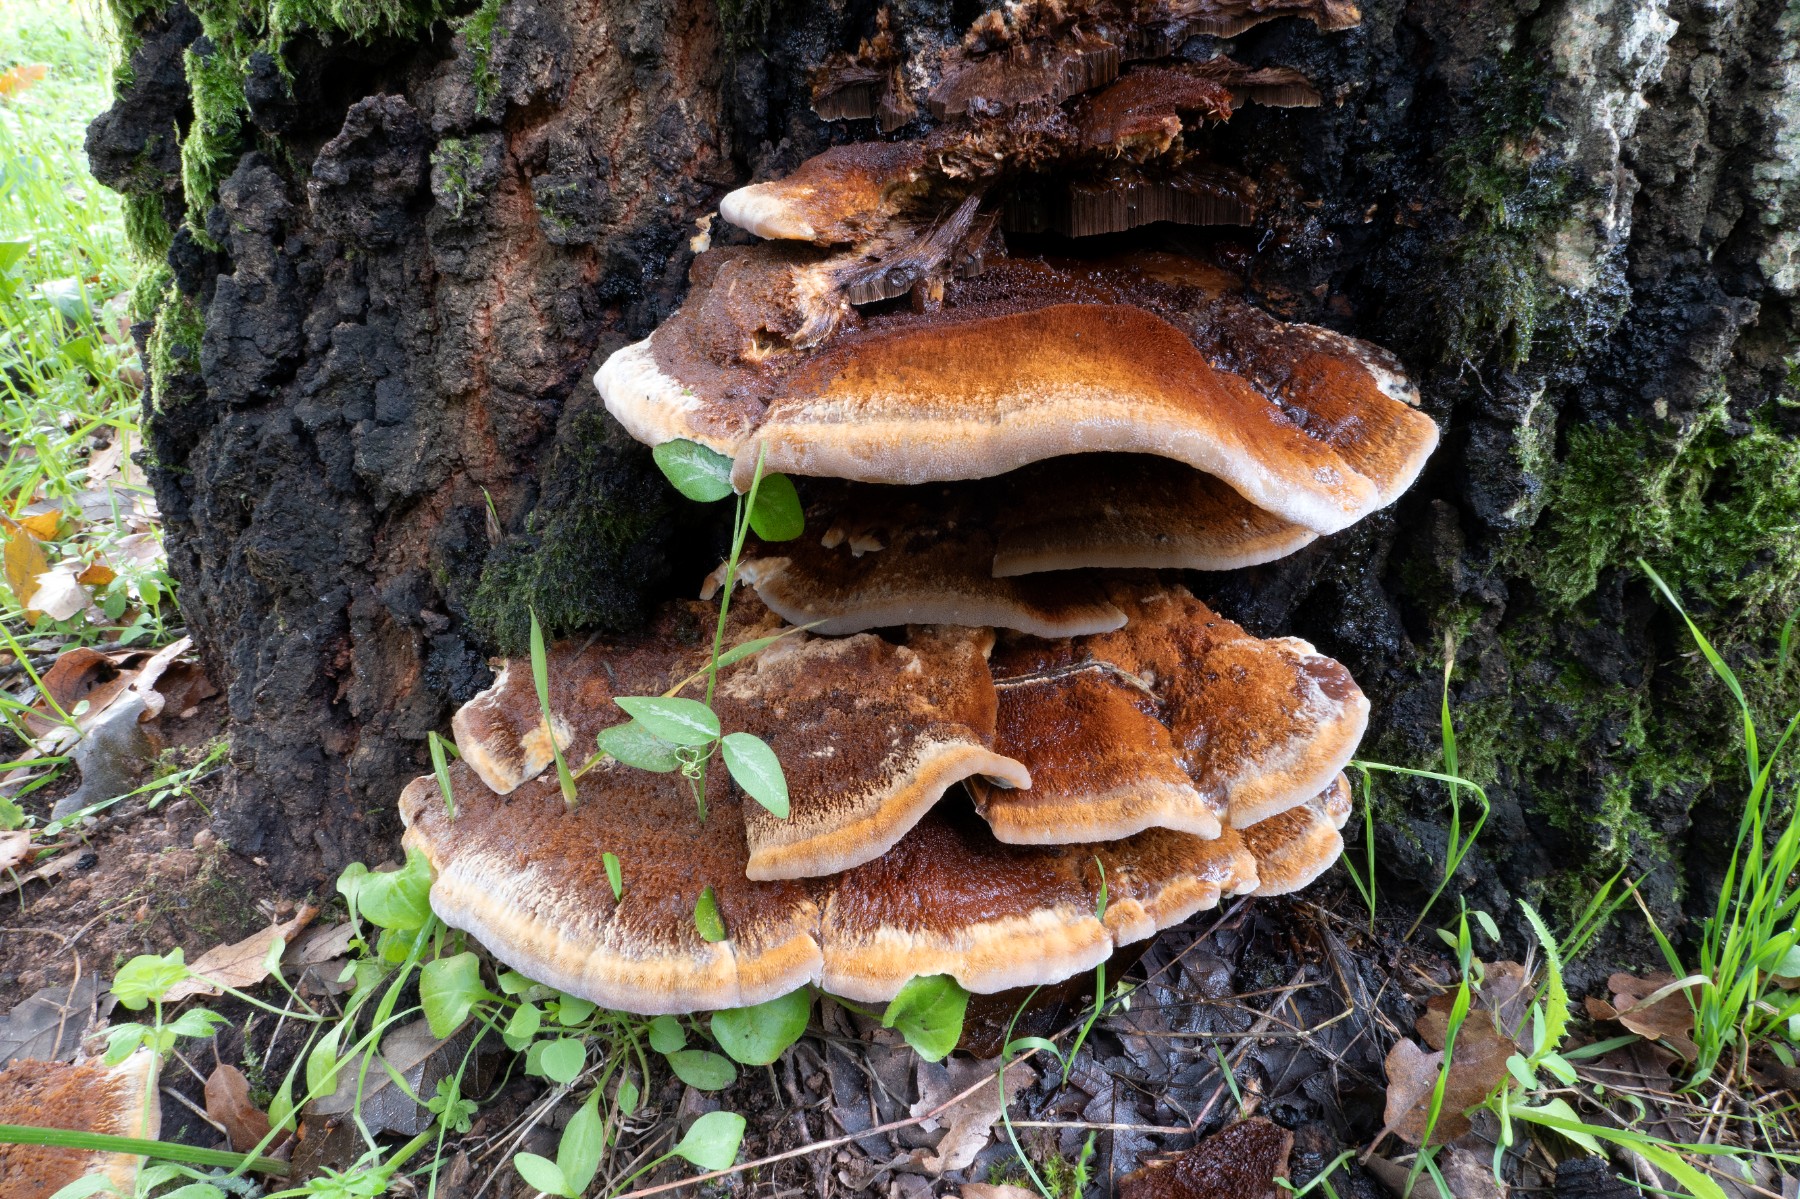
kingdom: Fungi
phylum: Basidiomycota
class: Agaricomycetes
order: Hymenochaetales
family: Hymenochaetaceae
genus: Inonotus
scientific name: Inonotus cuticularis
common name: kroghåret spejlporesvamp
